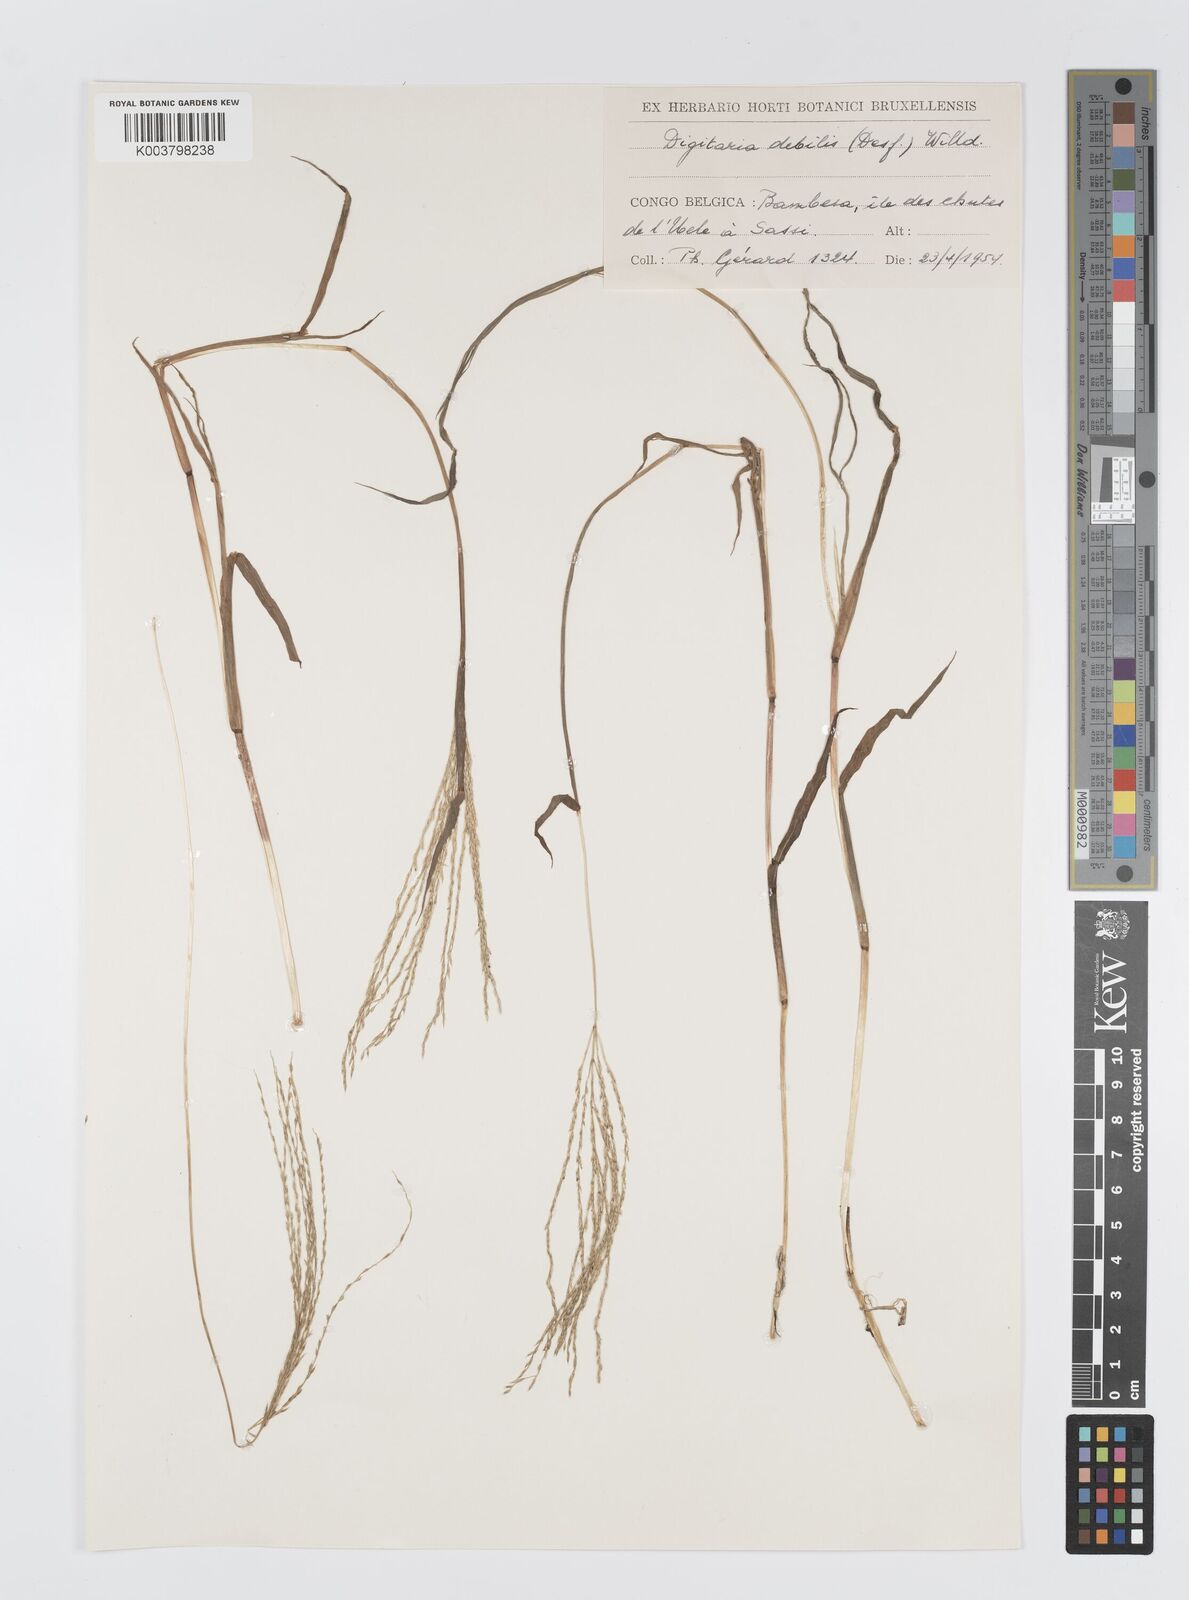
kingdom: Plantae
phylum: Tracheophyta
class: Liliopsida
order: Poales
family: Poaceae
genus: Digitaria
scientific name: Digitaria debilis
